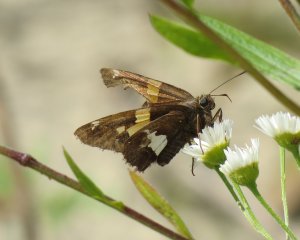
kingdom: Animalia
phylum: Arthropoda
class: Insecta
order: Lepidoptera
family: Hesperiidae
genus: Epargyreus
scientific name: Epargyreus clarus
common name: Silver-spotted Skipper
